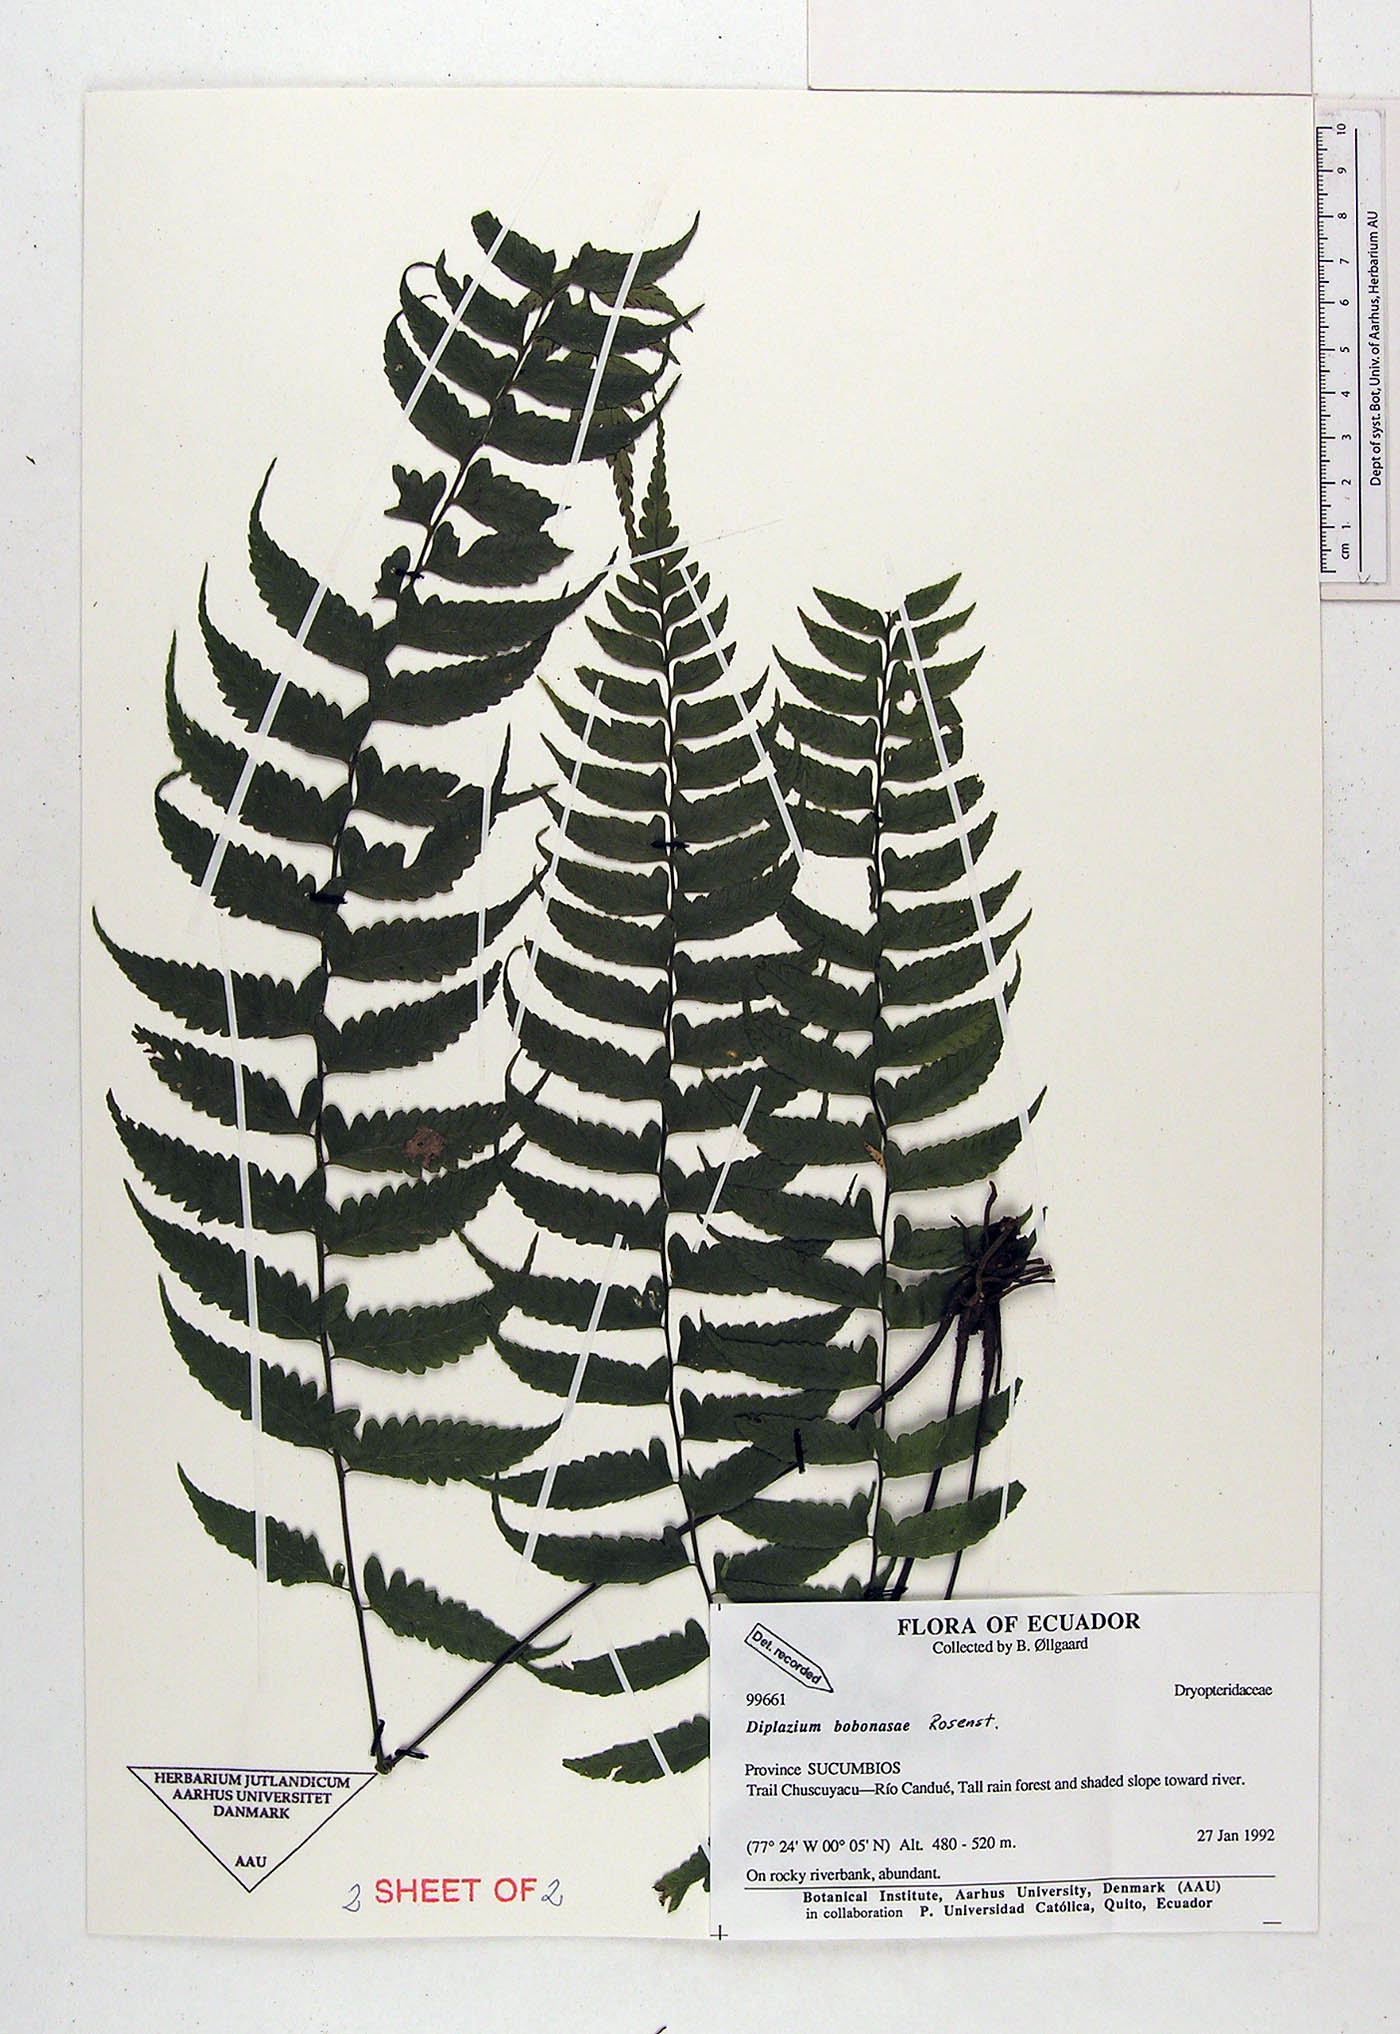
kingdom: Plantae
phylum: Tracheophyta
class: Polypodiopsida
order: Polypodiales
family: Athyriaceae
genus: Diplazium
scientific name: Diplazium bombonasae
